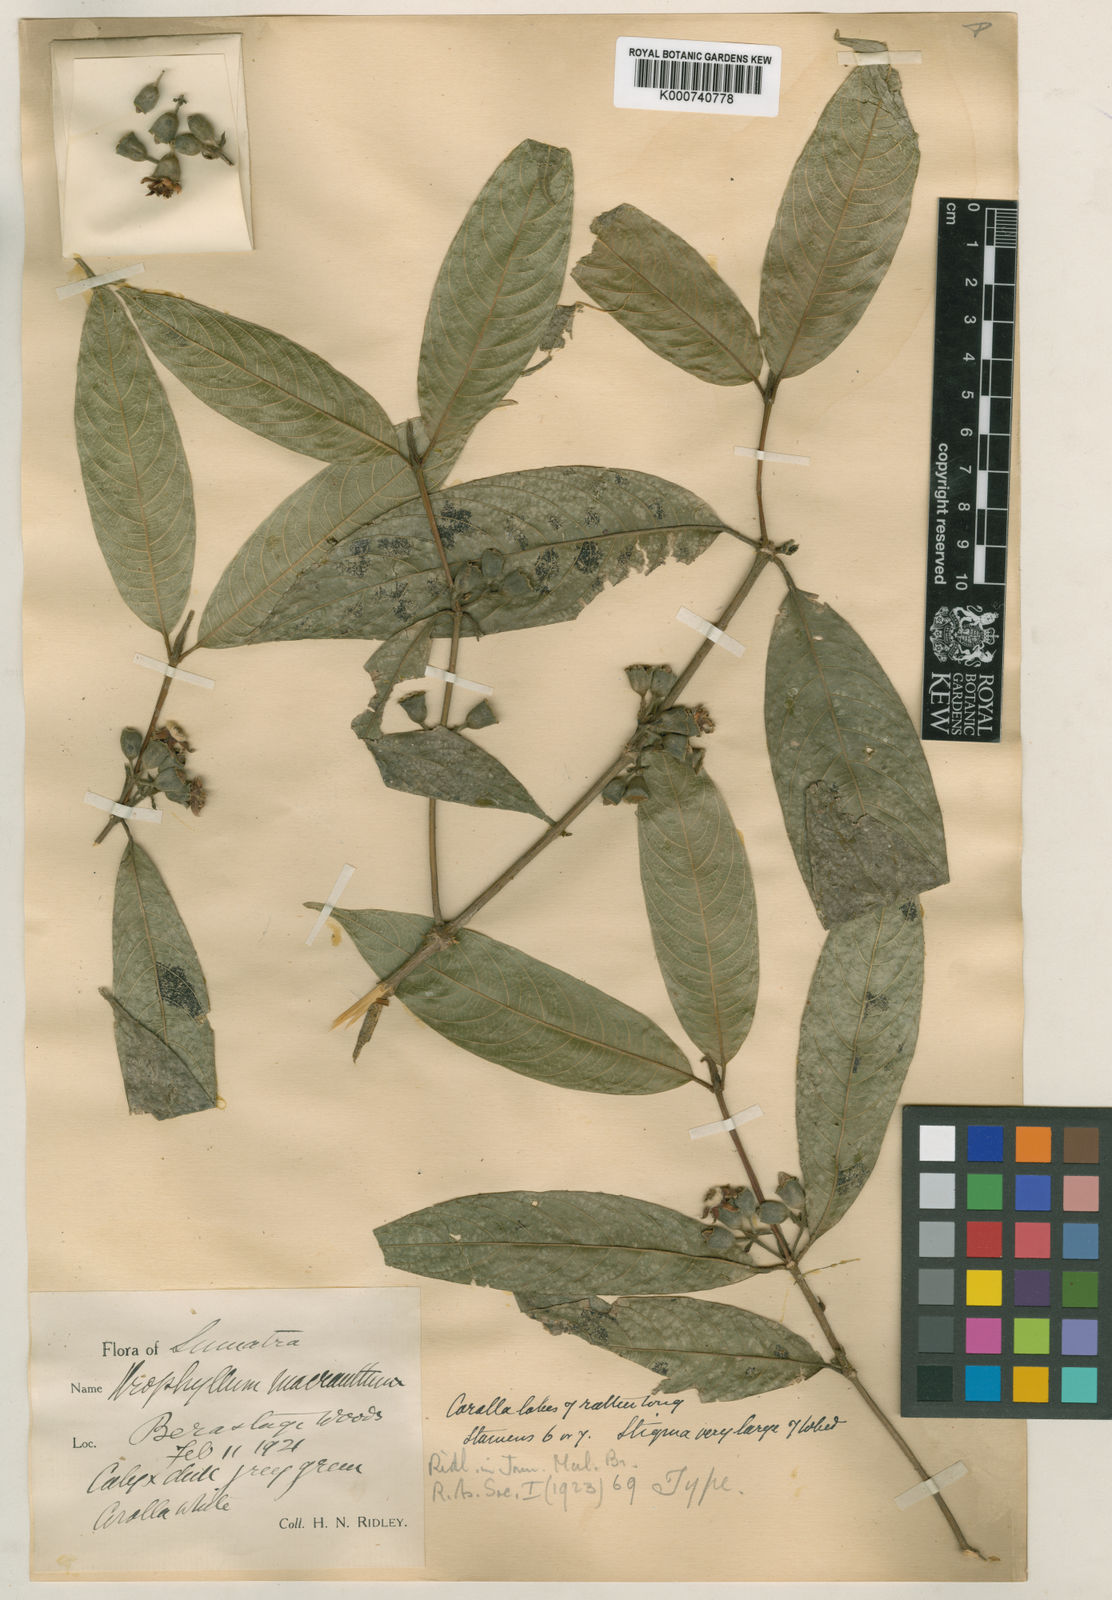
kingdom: Plantae
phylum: Tracheophyta
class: Magnoliopsida
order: Gentianales
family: Rubiaceae
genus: Leucolophus
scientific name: Leucolophus macranthus
